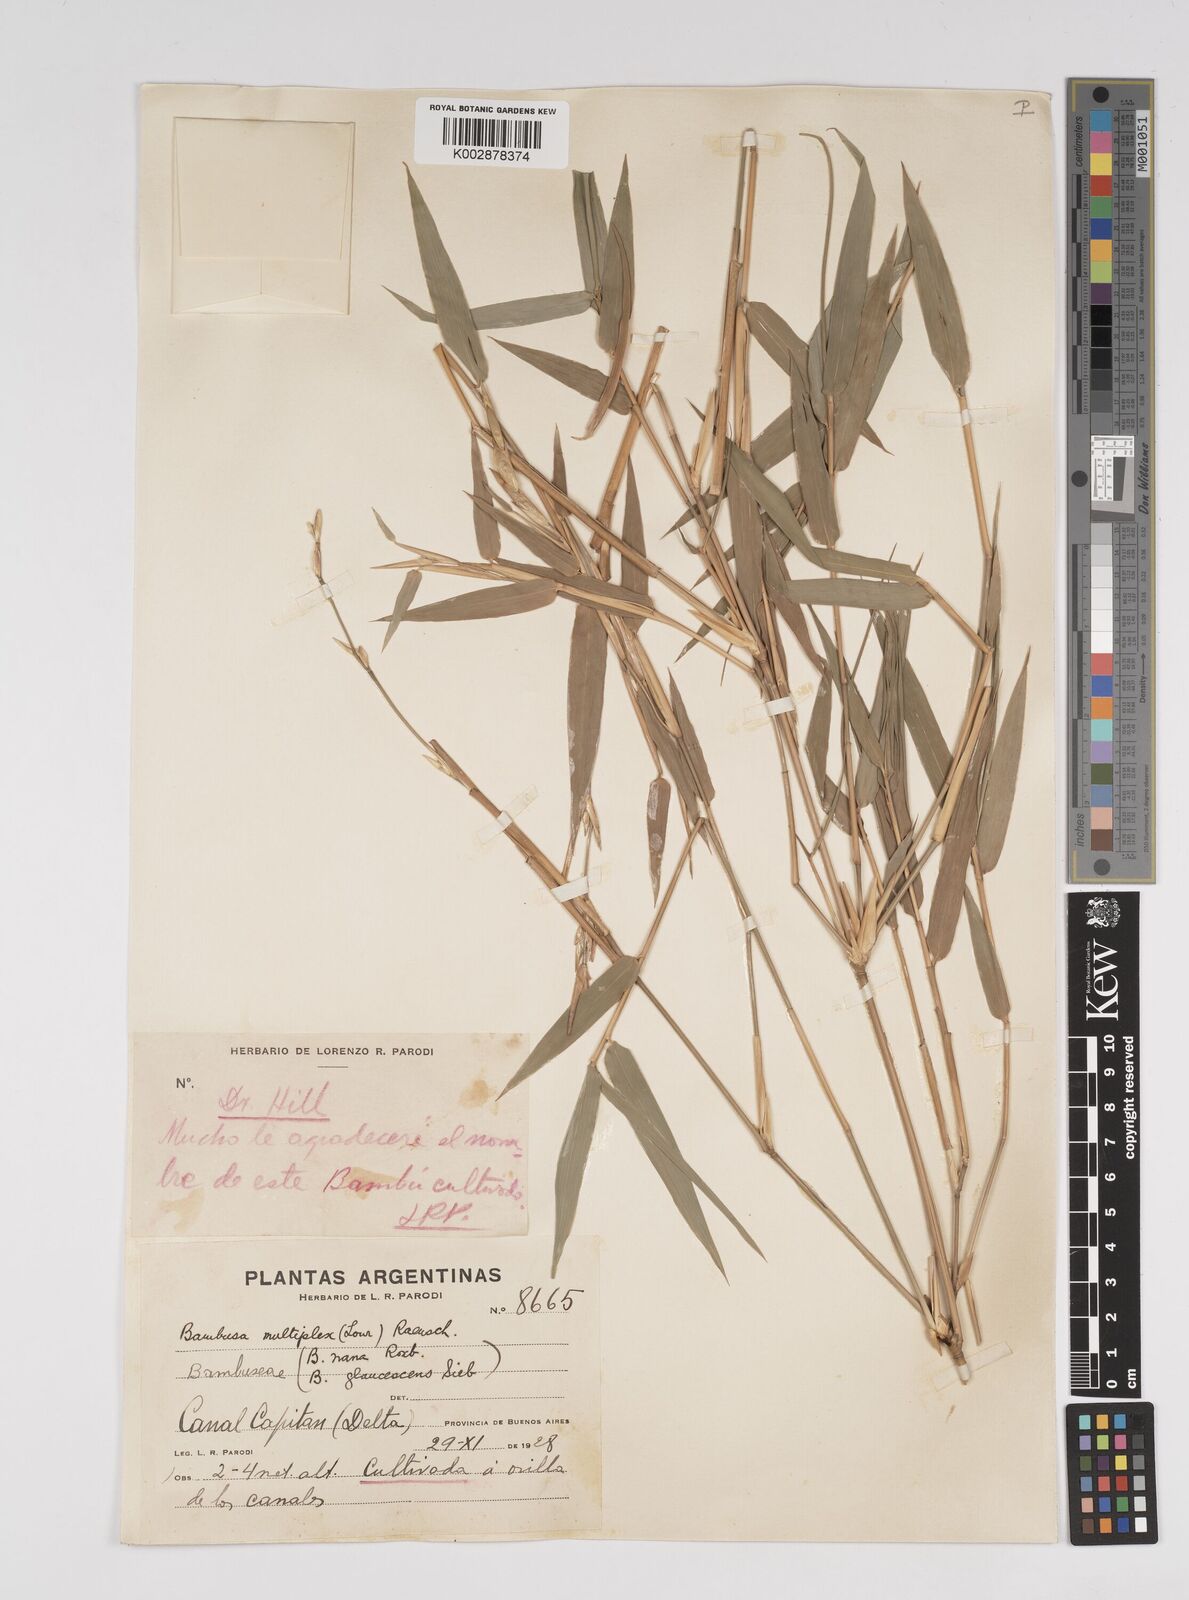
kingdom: Plantae
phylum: Tracheophyta
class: Liliopsida
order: Poales
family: Poaceae
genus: Bambusa
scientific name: Bambusa multiplex
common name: Hedge bamboo
